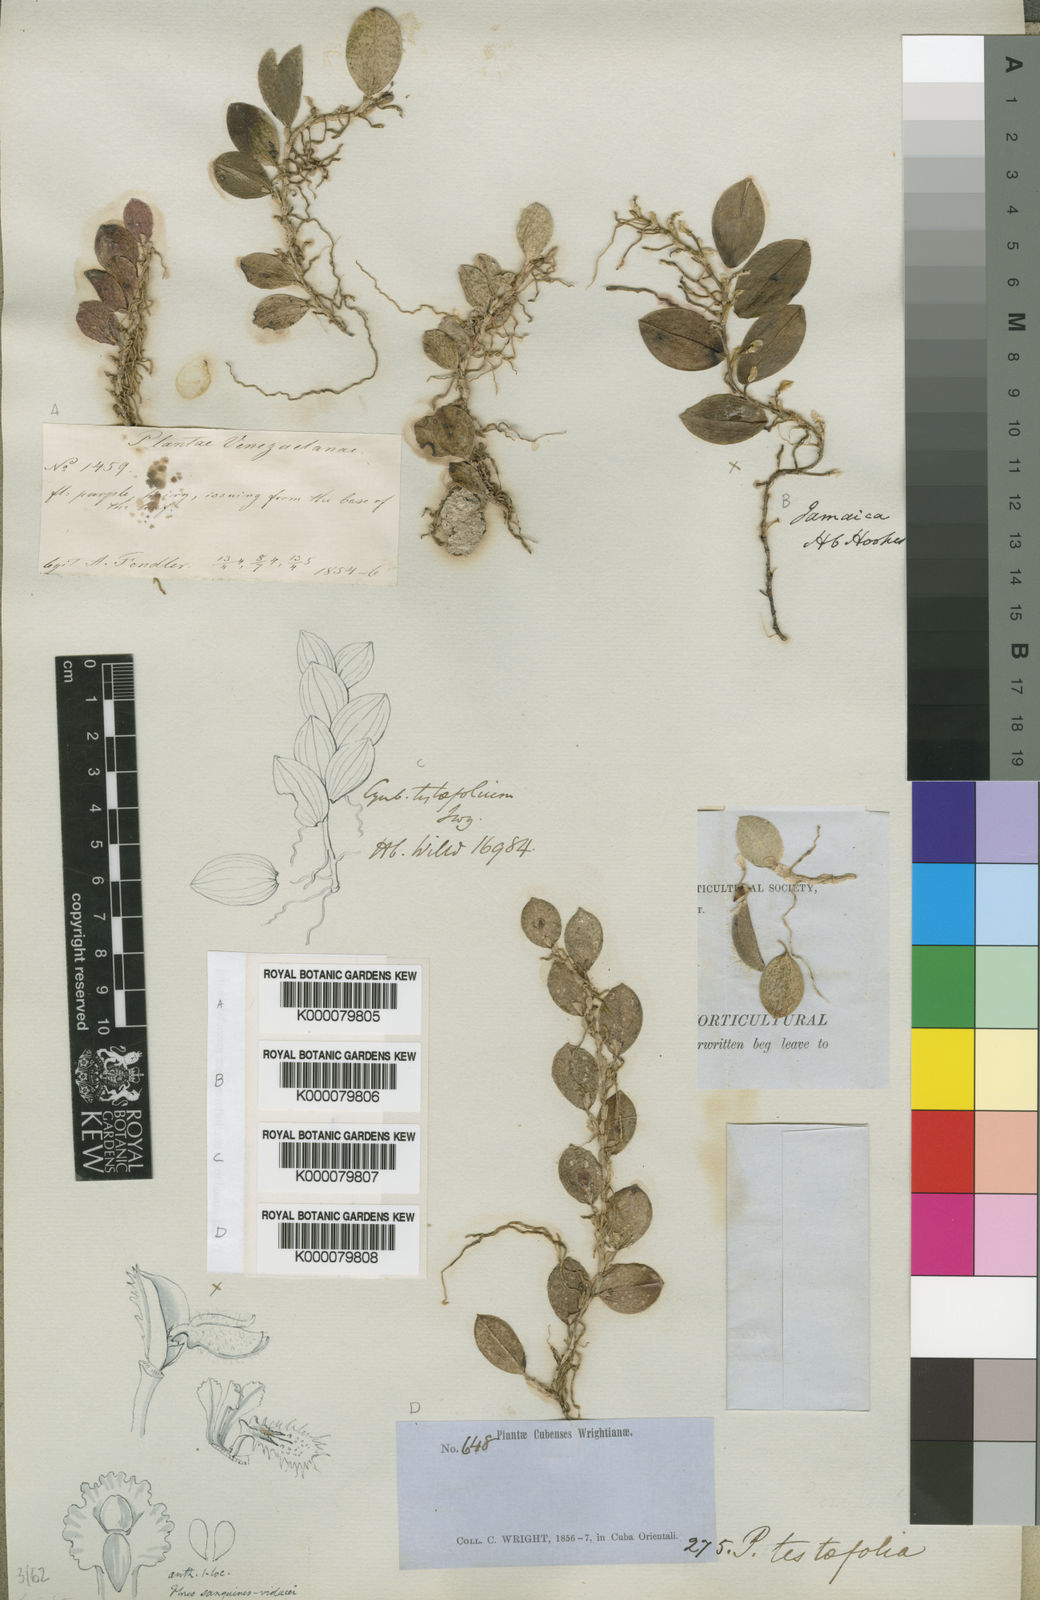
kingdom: Plantae
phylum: Tracheophyta
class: Liliopsida
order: Asparagales
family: Orchidaceae
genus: Pleurothallis
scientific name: Pleurothallis
